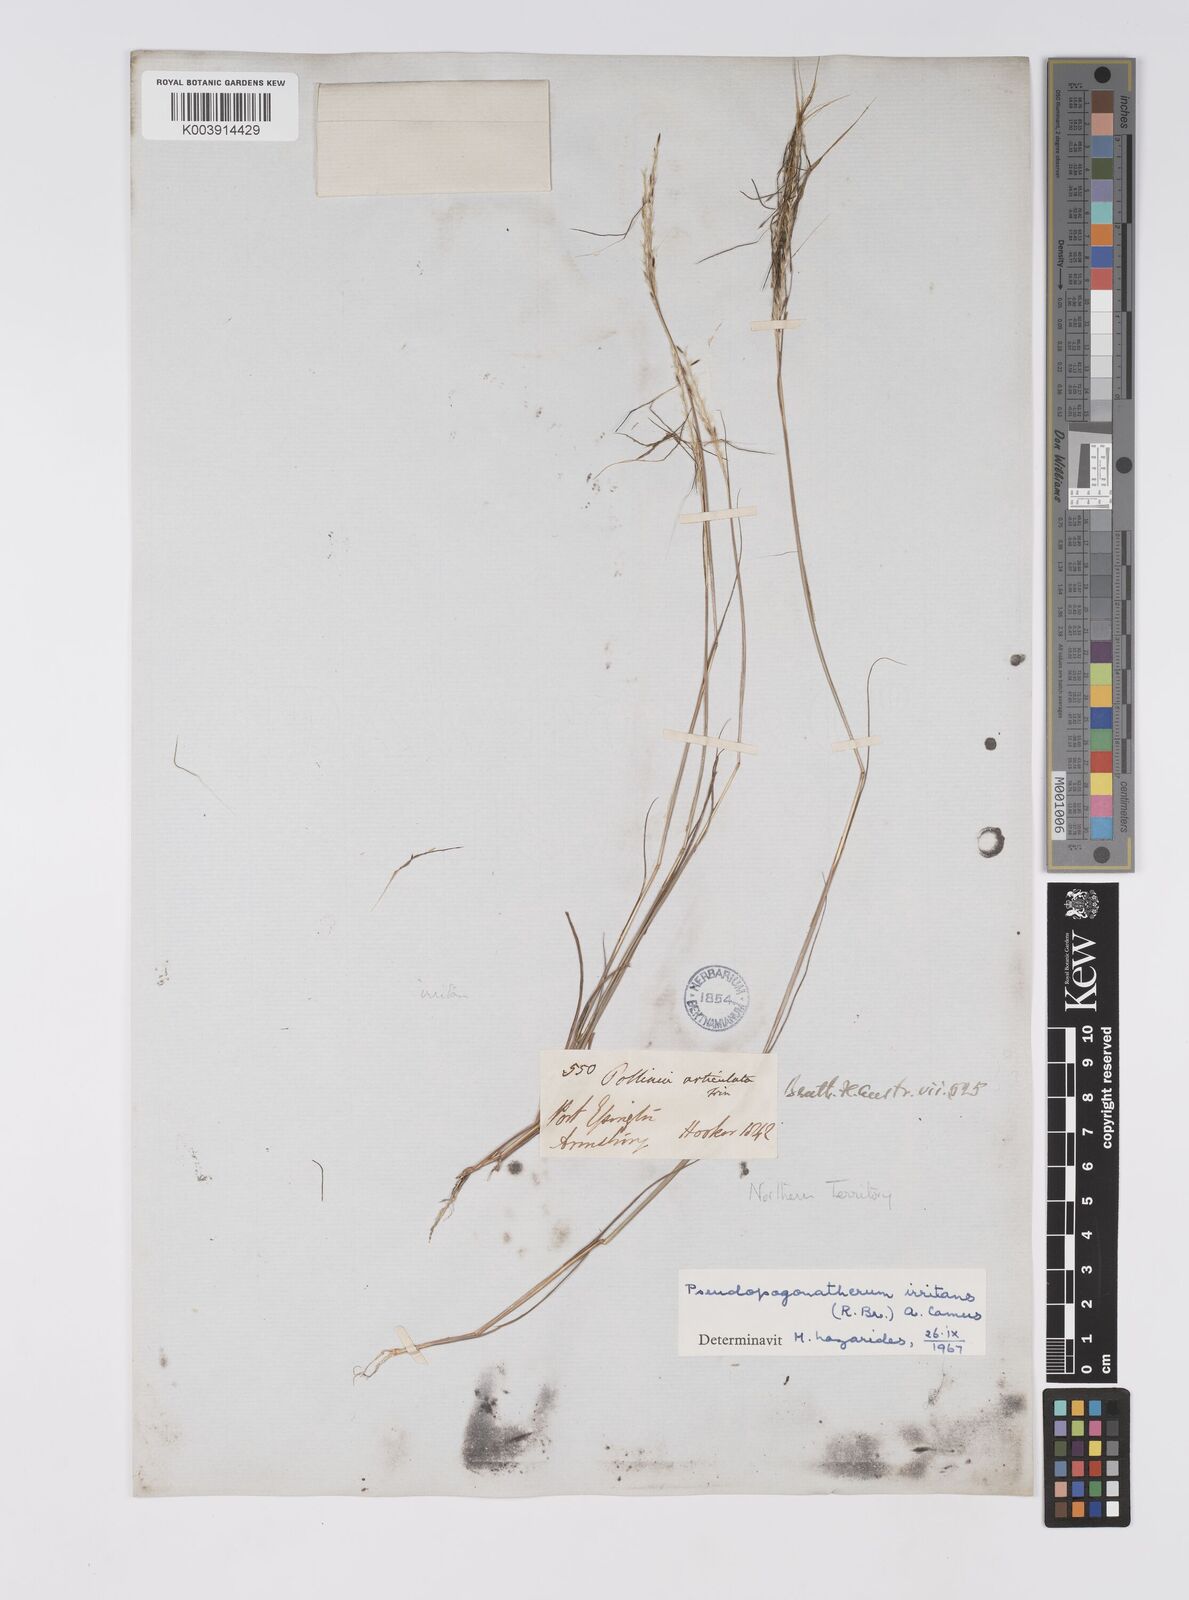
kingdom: Plantae
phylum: Tracheophyta
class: Liliopsida
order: Poales
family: Poaceae
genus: Pseudopogonatherum
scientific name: Pseudopogonatherum irritans
